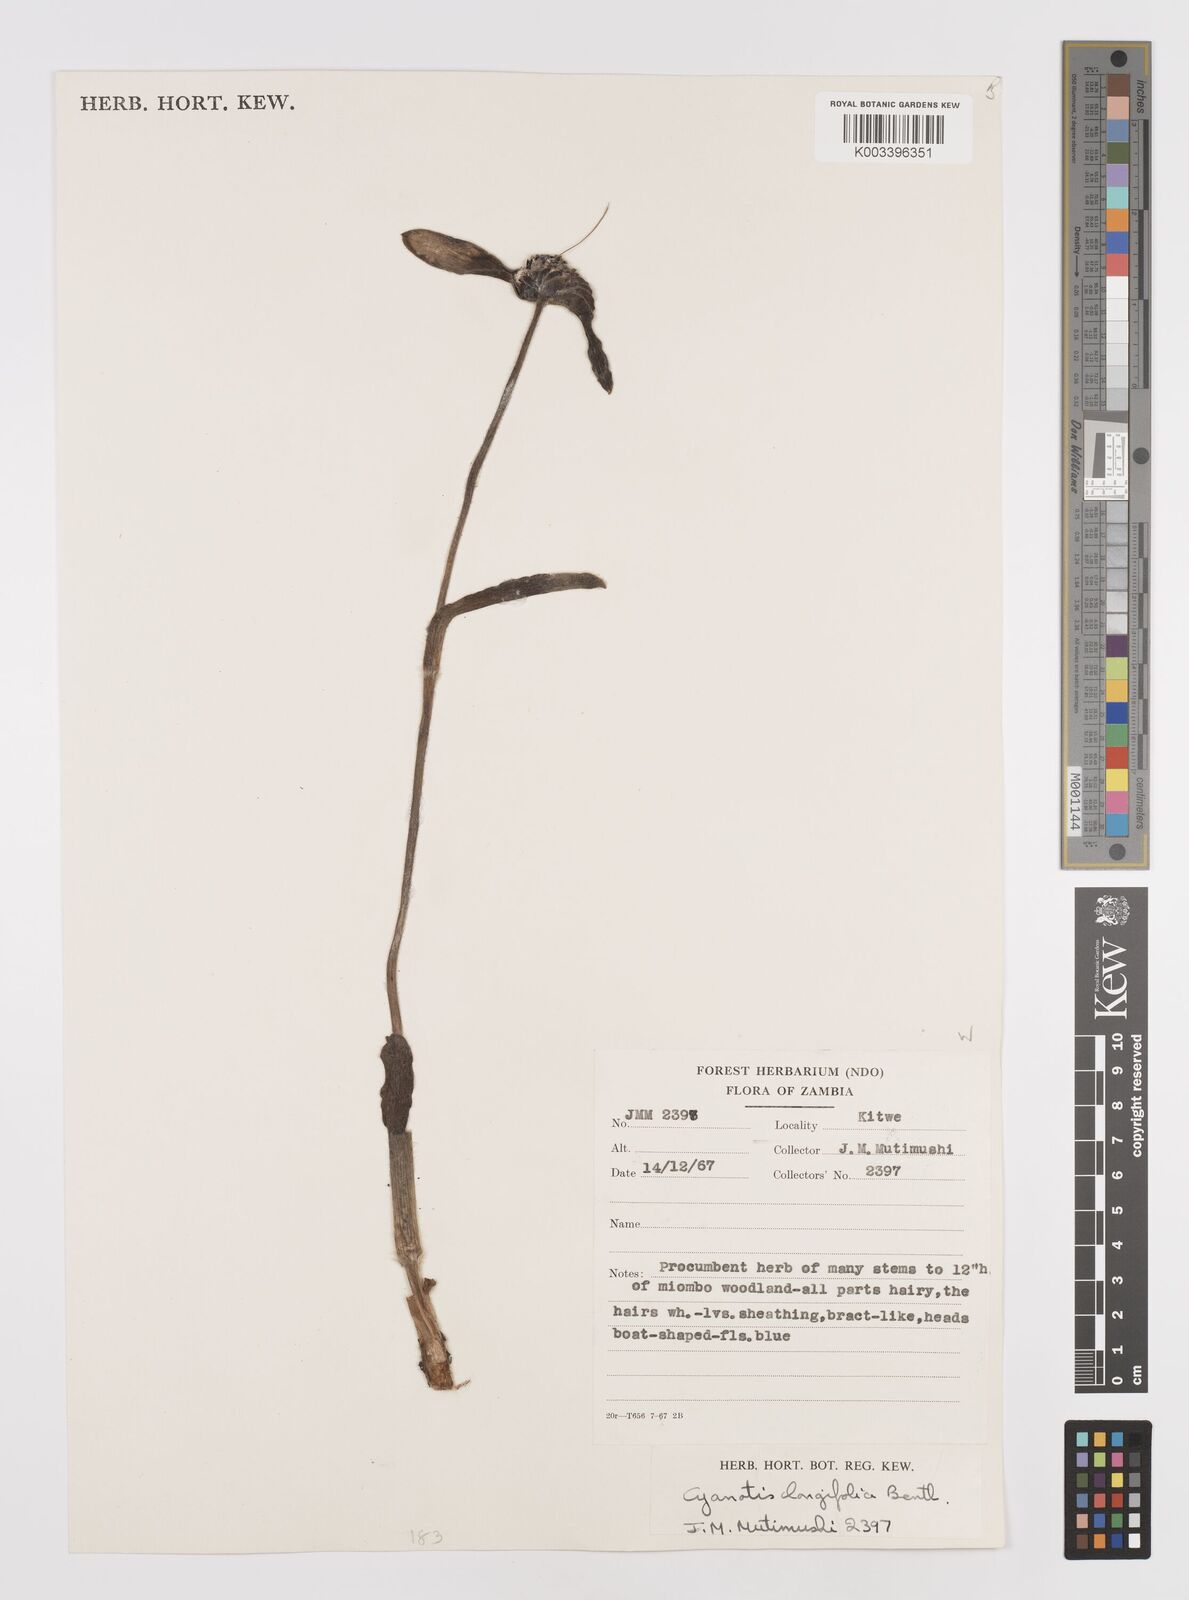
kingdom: Plantae
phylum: Tracheophyta
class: Liliopsida
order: Commelinales
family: Commelinaceae
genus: Cyanotis
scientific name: Cyanotis longifolia
